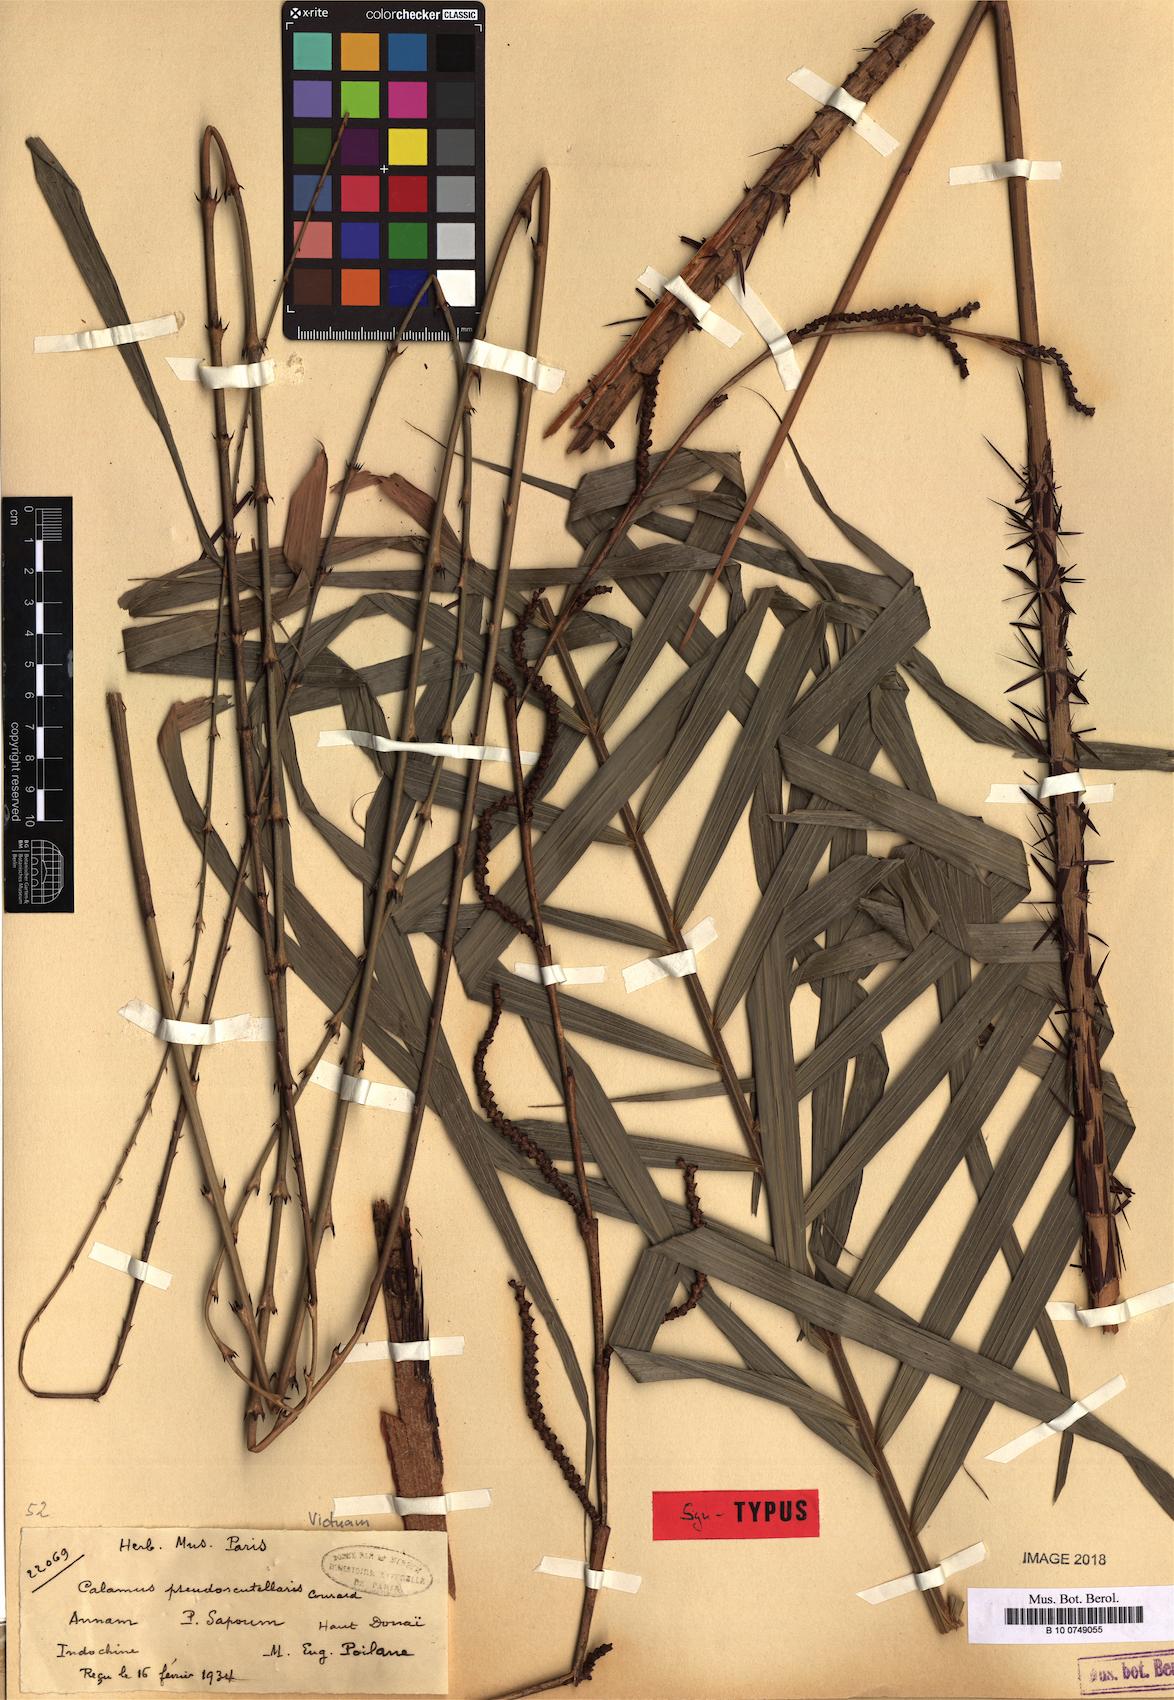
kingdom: Plantae
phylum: Tracheophyta
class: Liliopsida
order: Arecales
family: Arecaceae
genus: Calamus
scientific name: Calamus rhabdocladus
